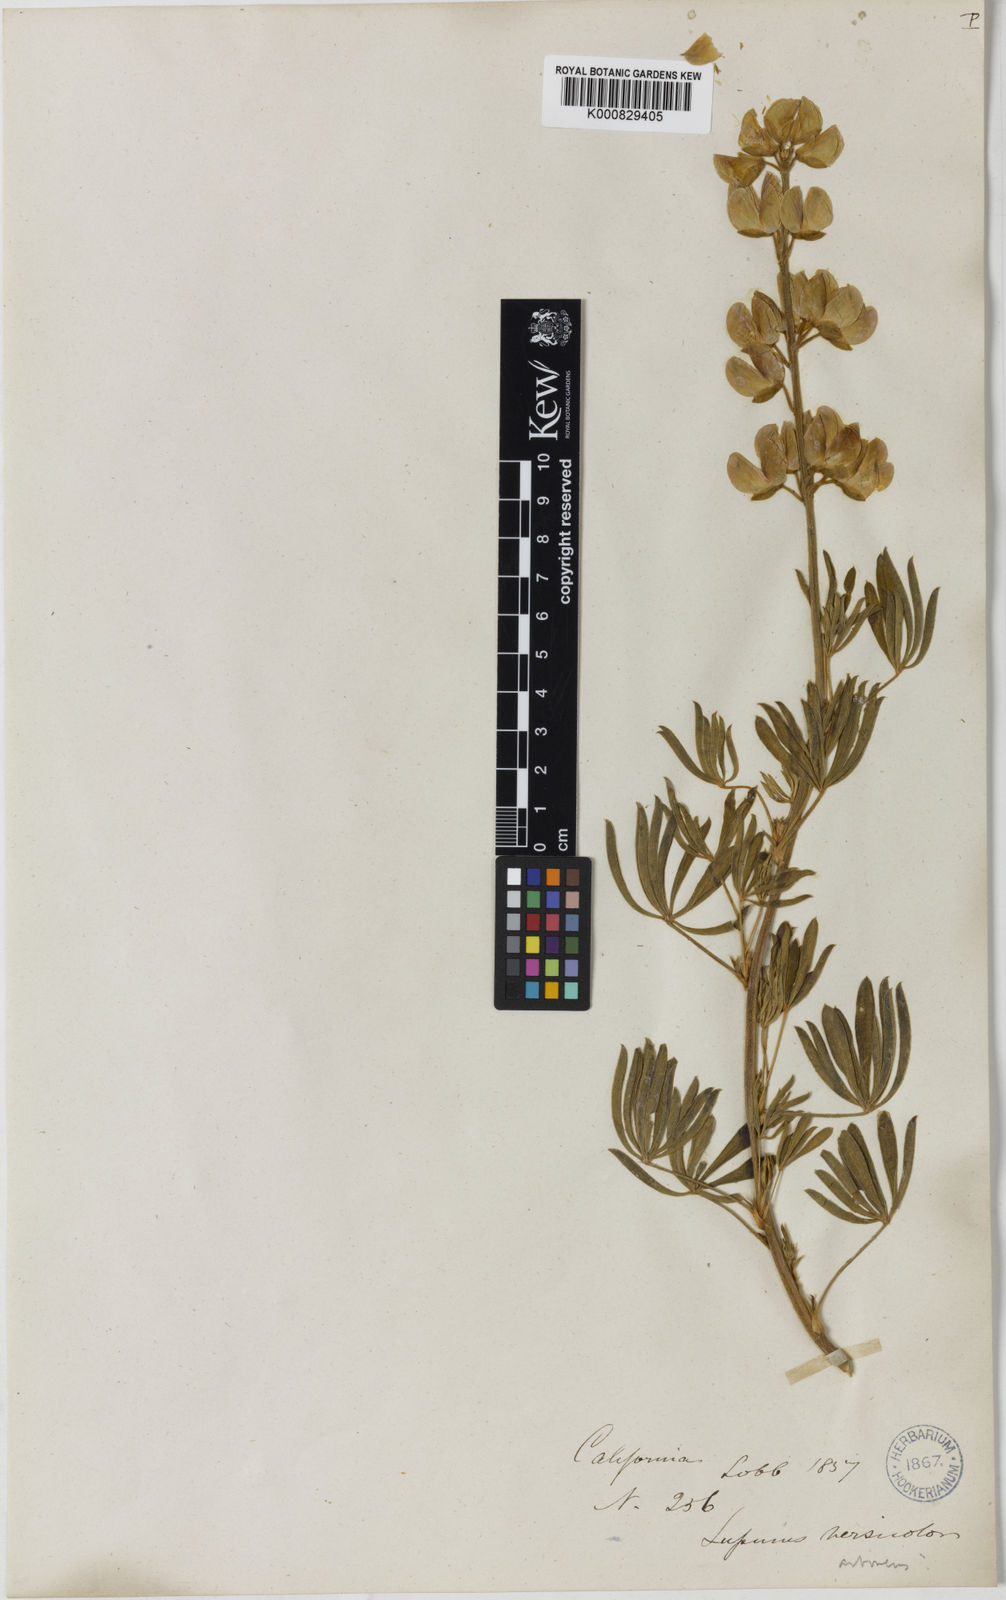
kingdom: Plantae
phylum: Tracheophyta
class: Magnoliopsida
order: Fabales
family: Fabaceae
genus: Lupinus
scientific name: Lupinus arboreus
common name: Yellow bush lupine
